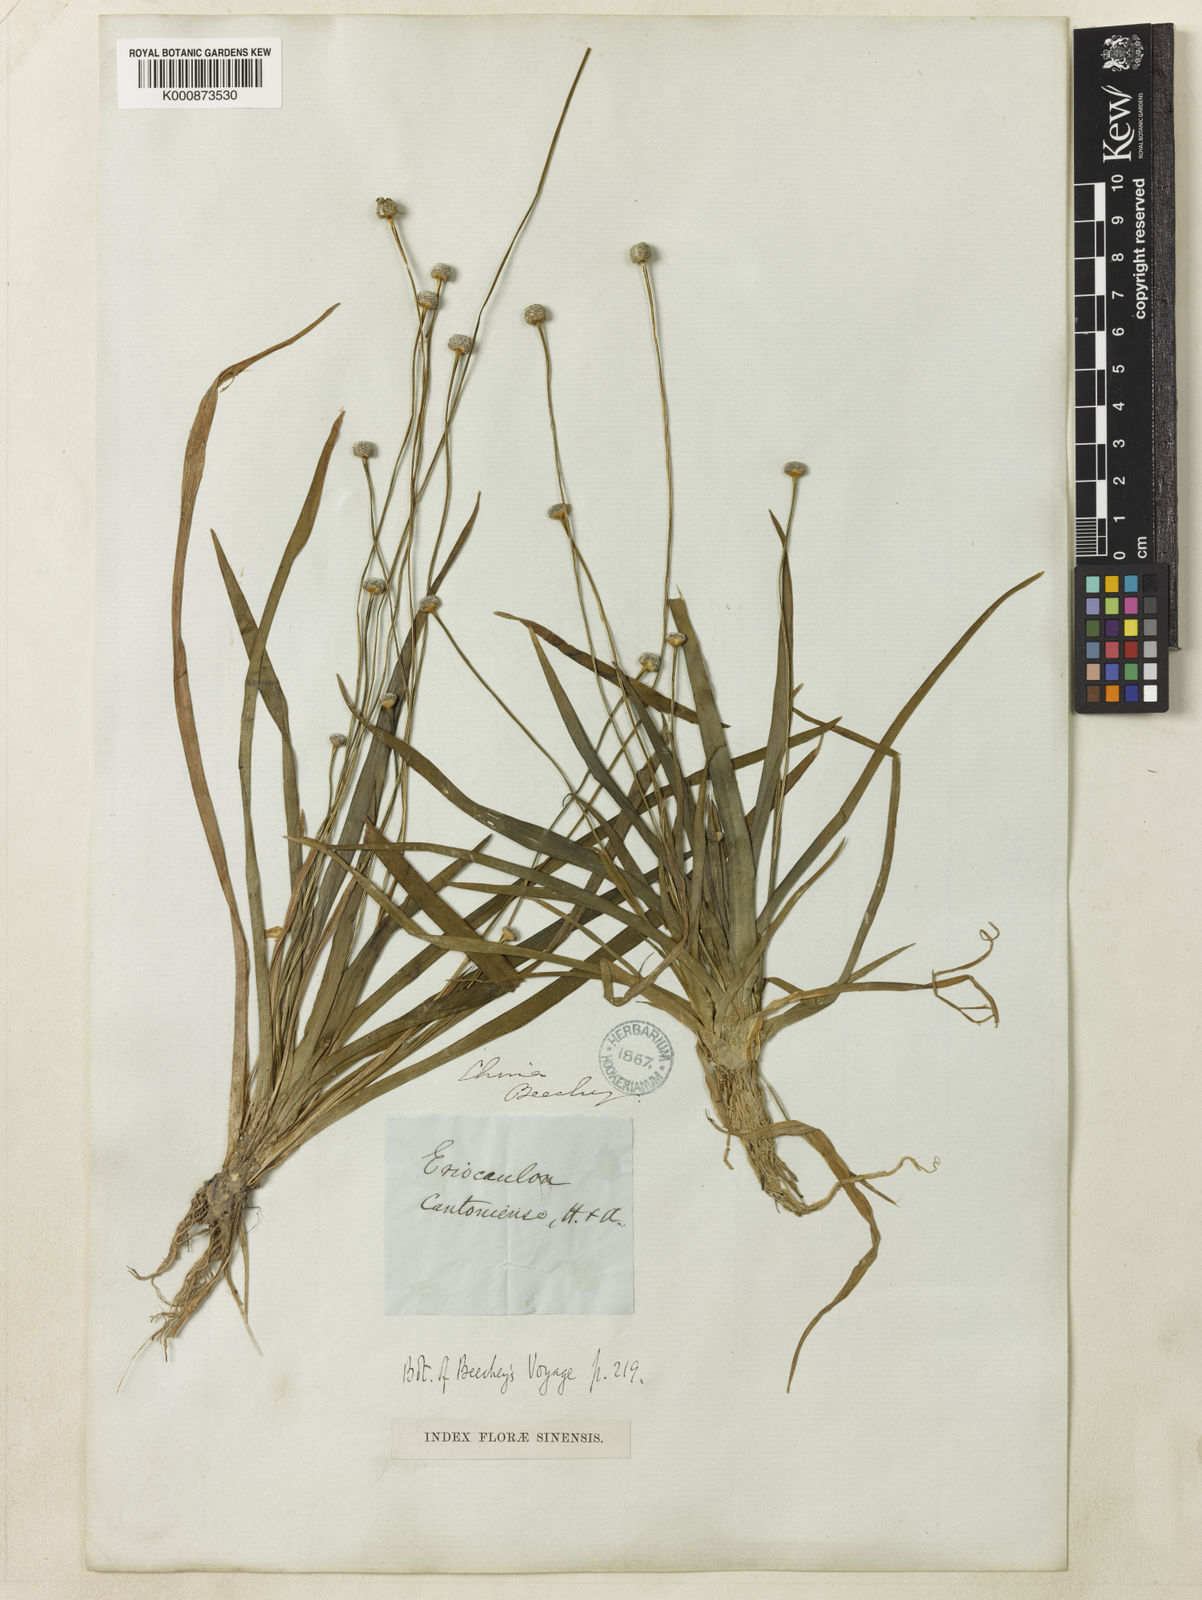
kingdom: Plantae
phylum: Tracheophyta
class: Liliopsida
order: Poales
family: Eriocaulaceae
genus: Eriocaulon
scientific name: Eriocaulon sexangulare
